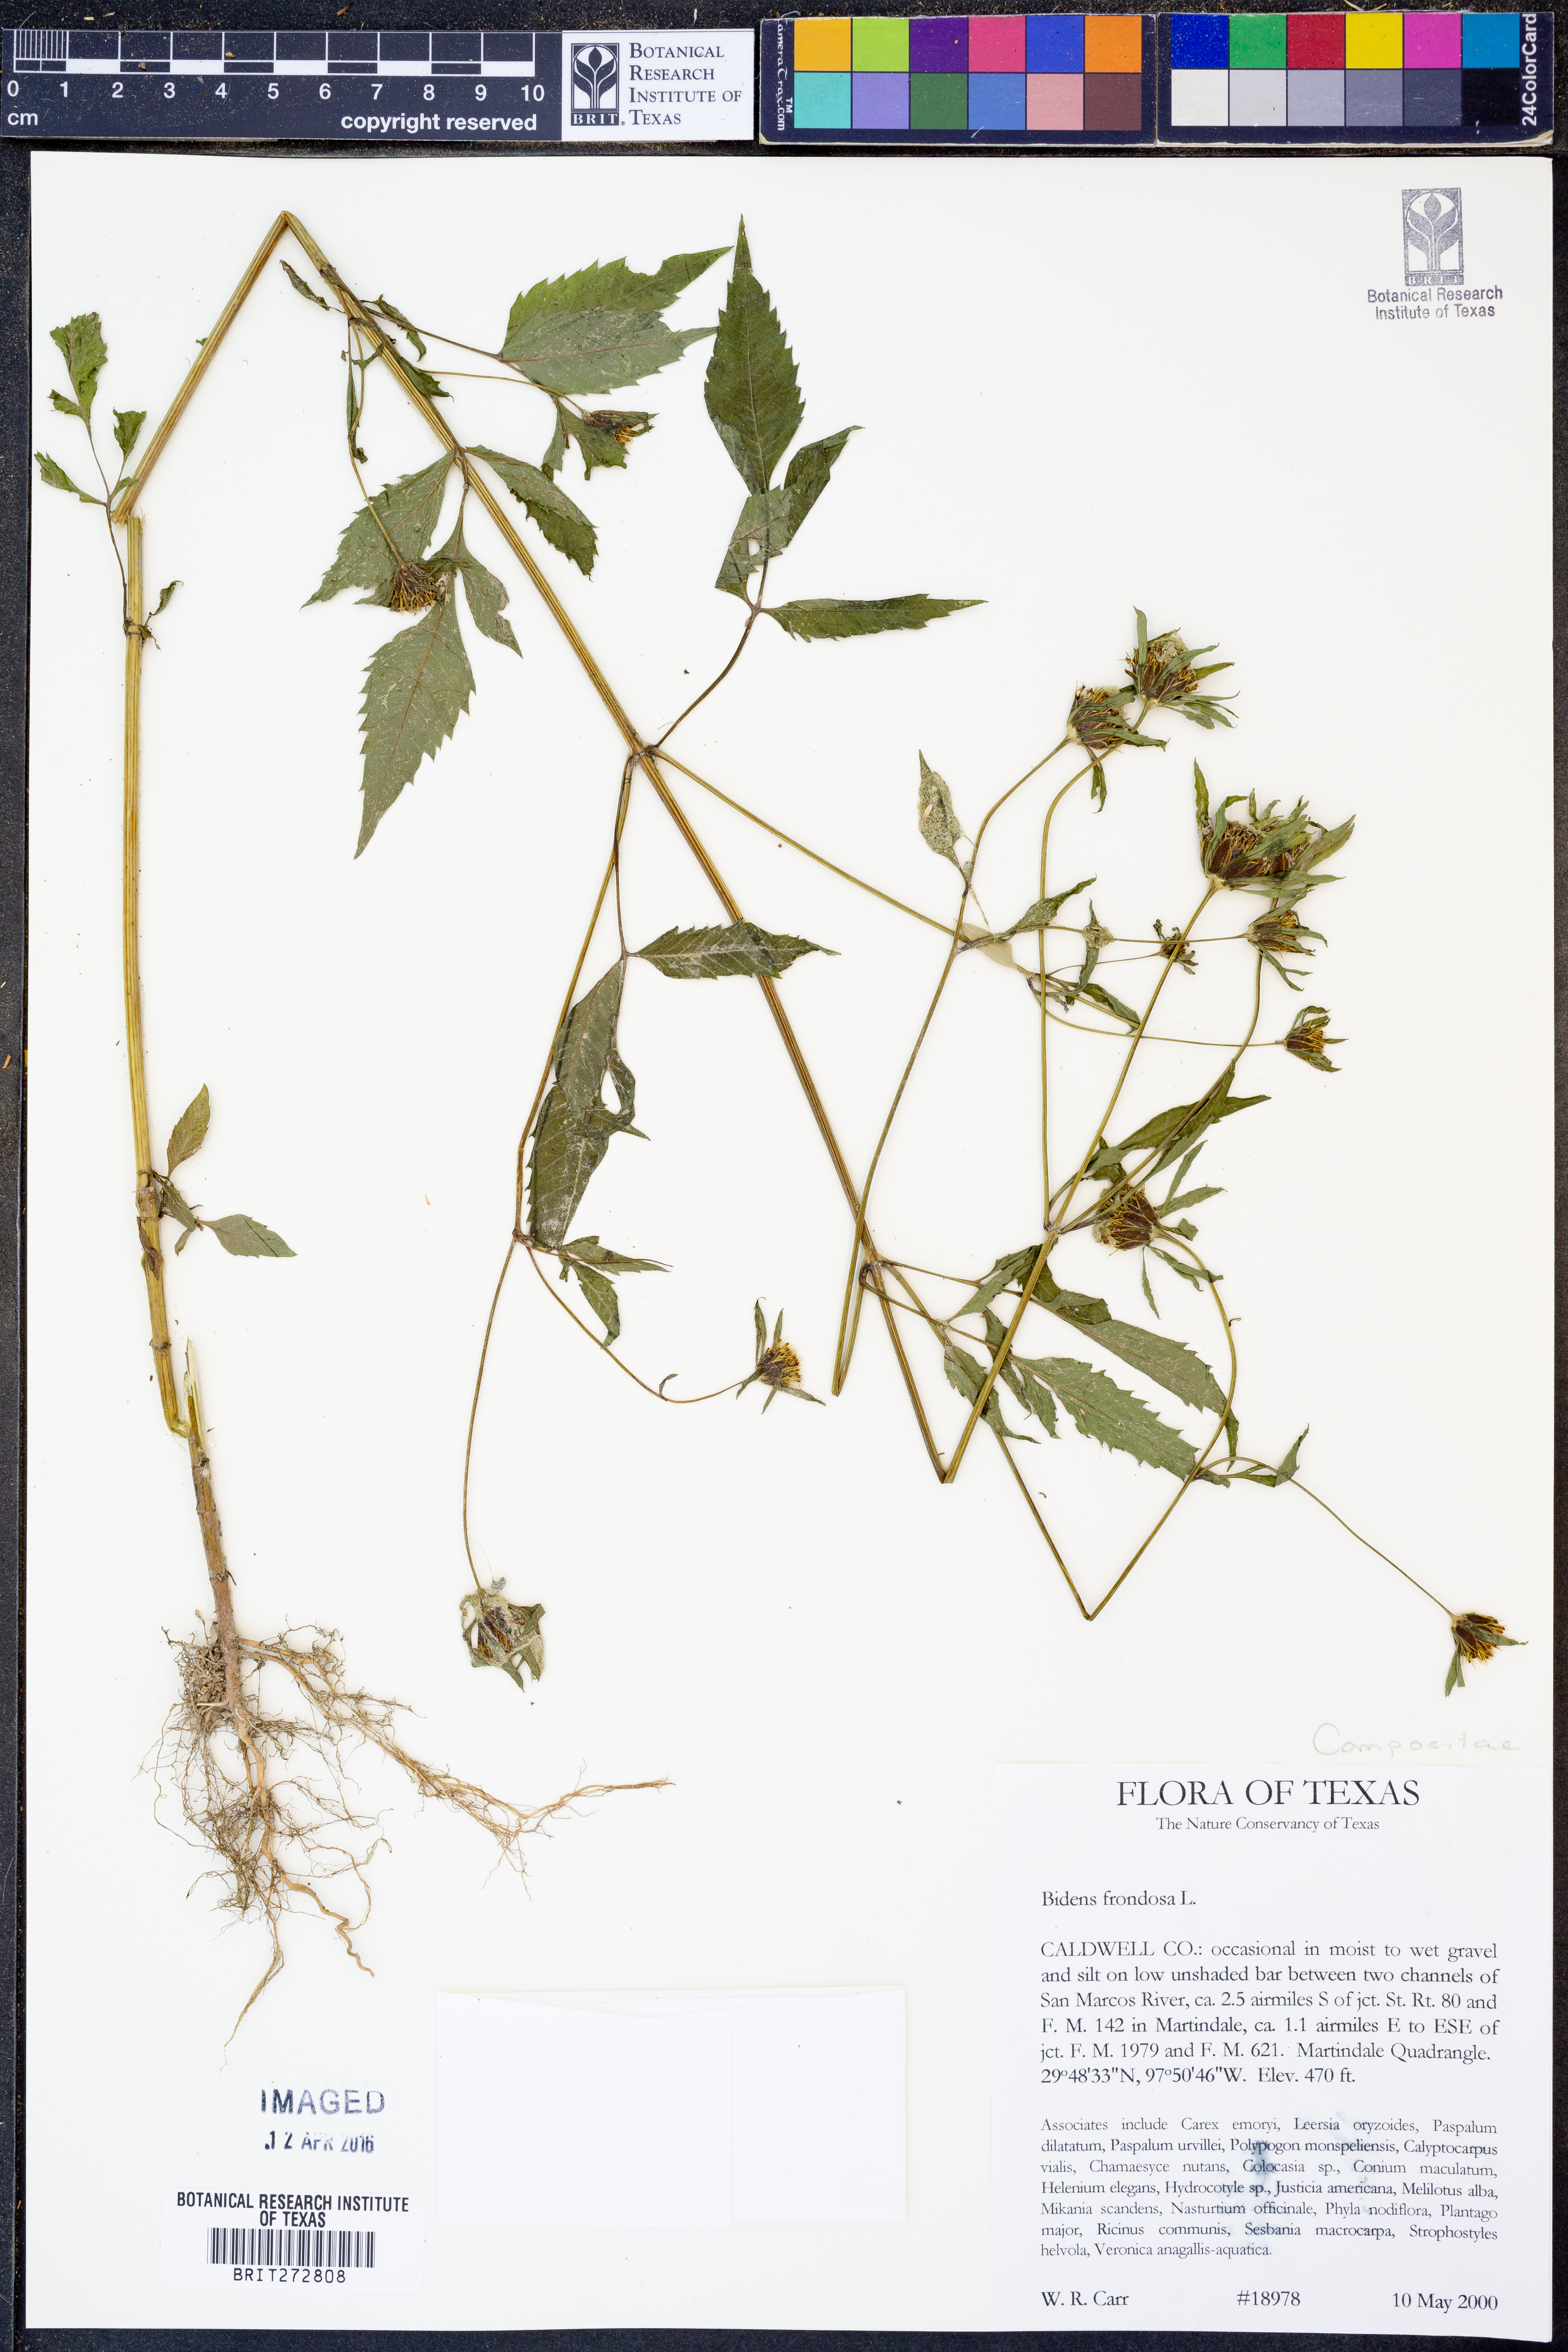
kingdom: Plantae
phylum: Tracheophyta
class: Magnoliopsida
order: Asterales
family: Asteraceae
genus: Bidens
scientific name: Bidens frondosa
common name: Beggarticks
